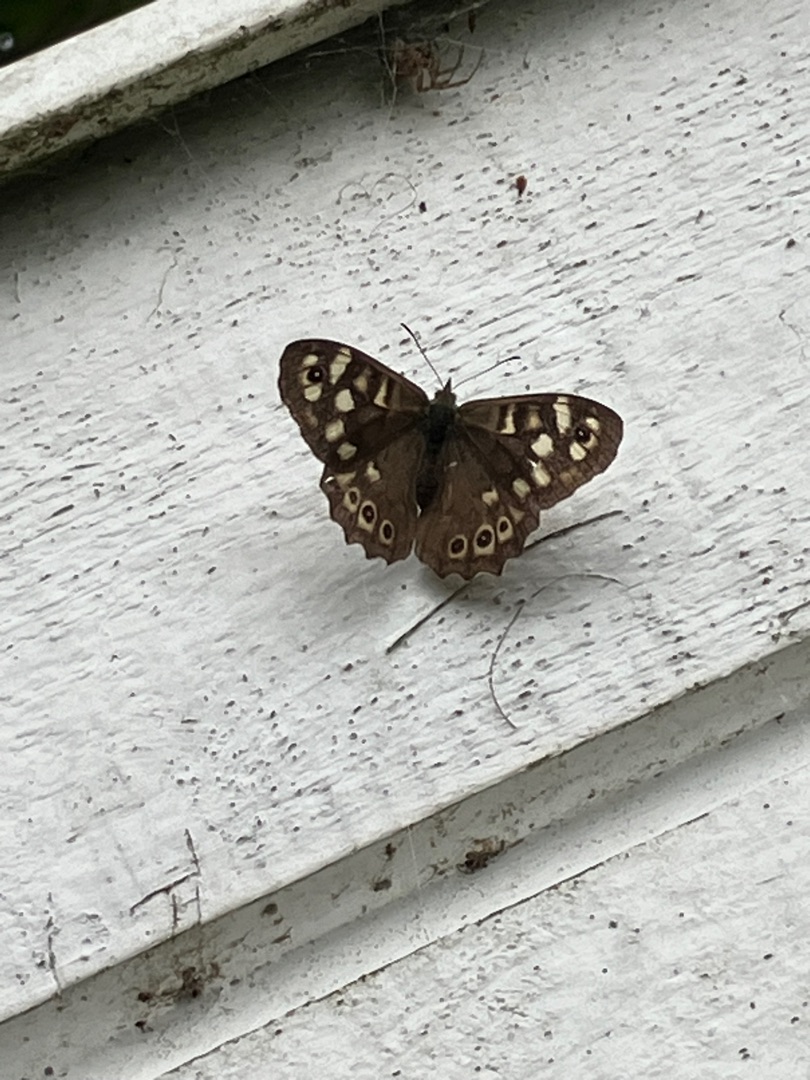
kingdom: Animalia
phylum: Arthropoda
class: Insecta
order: Lepidoptera
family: Nymphalidae
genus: Pararge
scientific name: Pararge aegeria
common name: Skovrandøje
